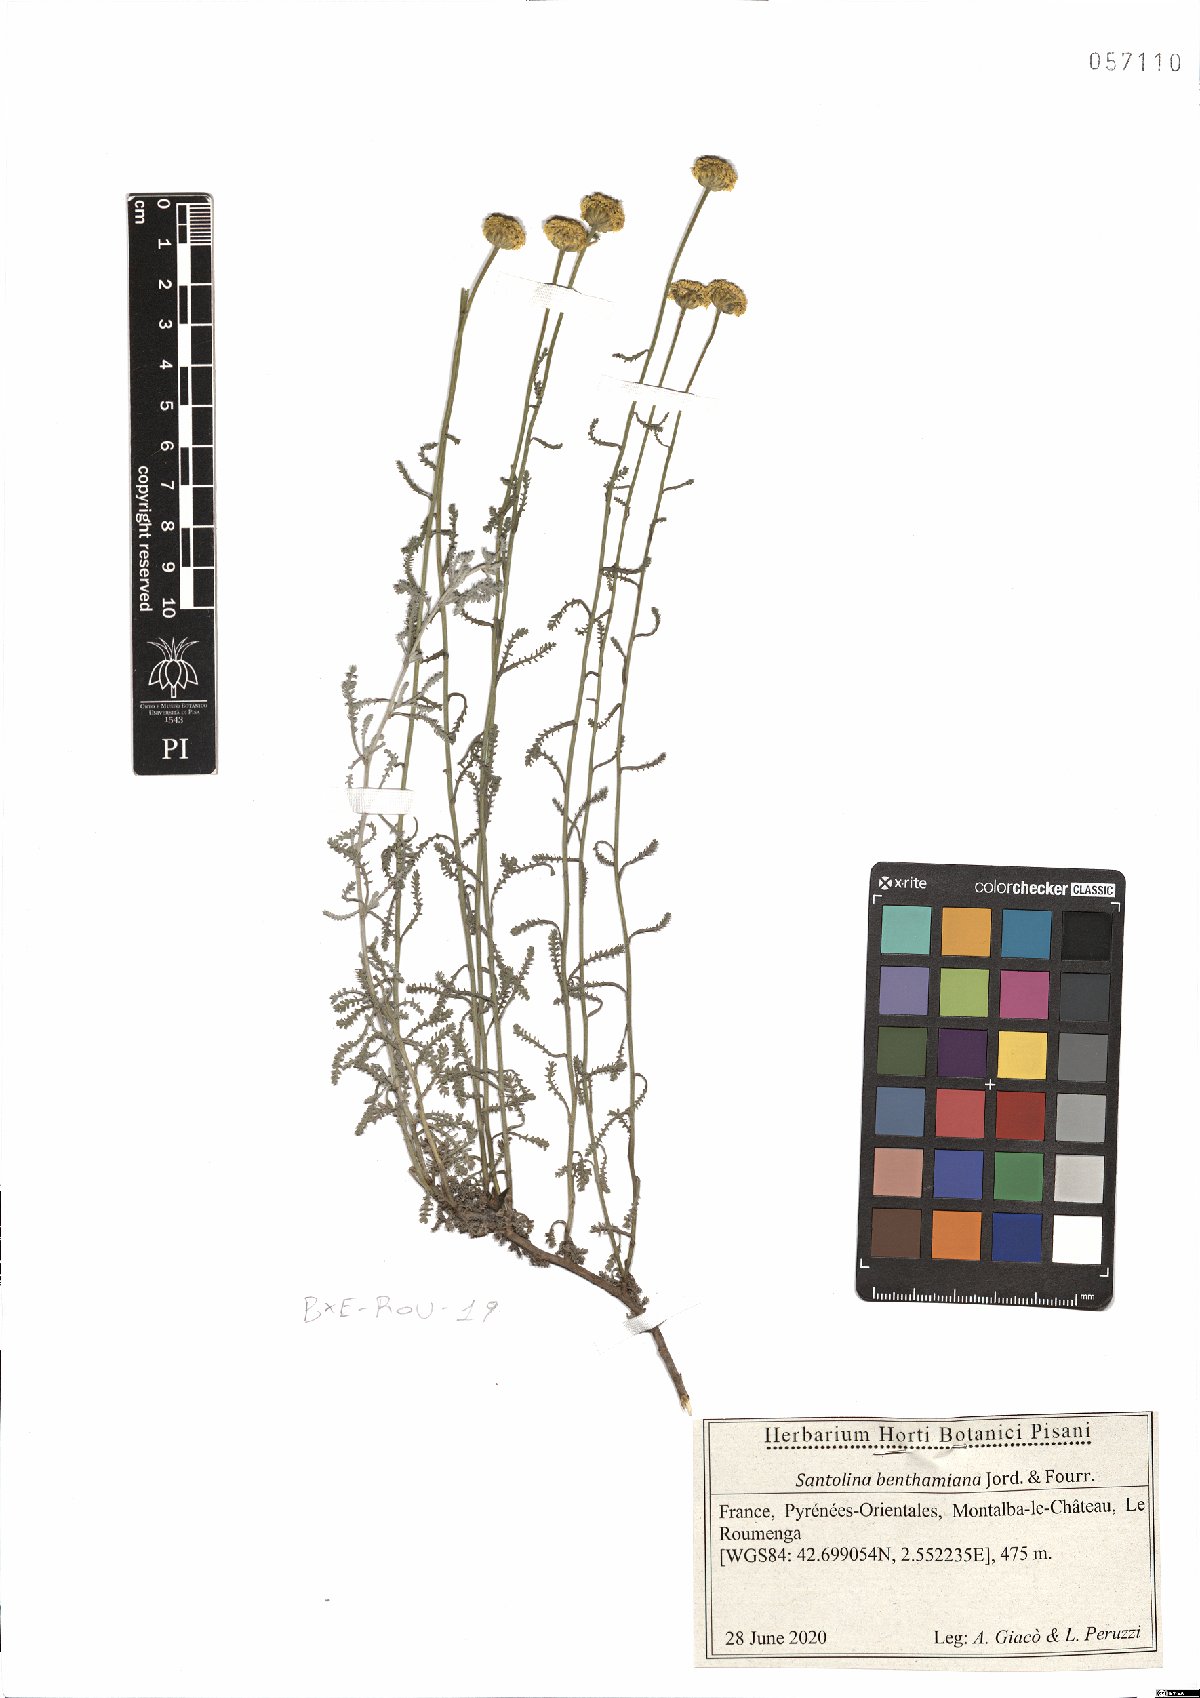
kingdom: Plantae
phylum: Tracheophyta
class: Magnoliopsida
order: Asterales
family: Asteraceae
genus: Santolina
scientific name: Santolina benthamiana
